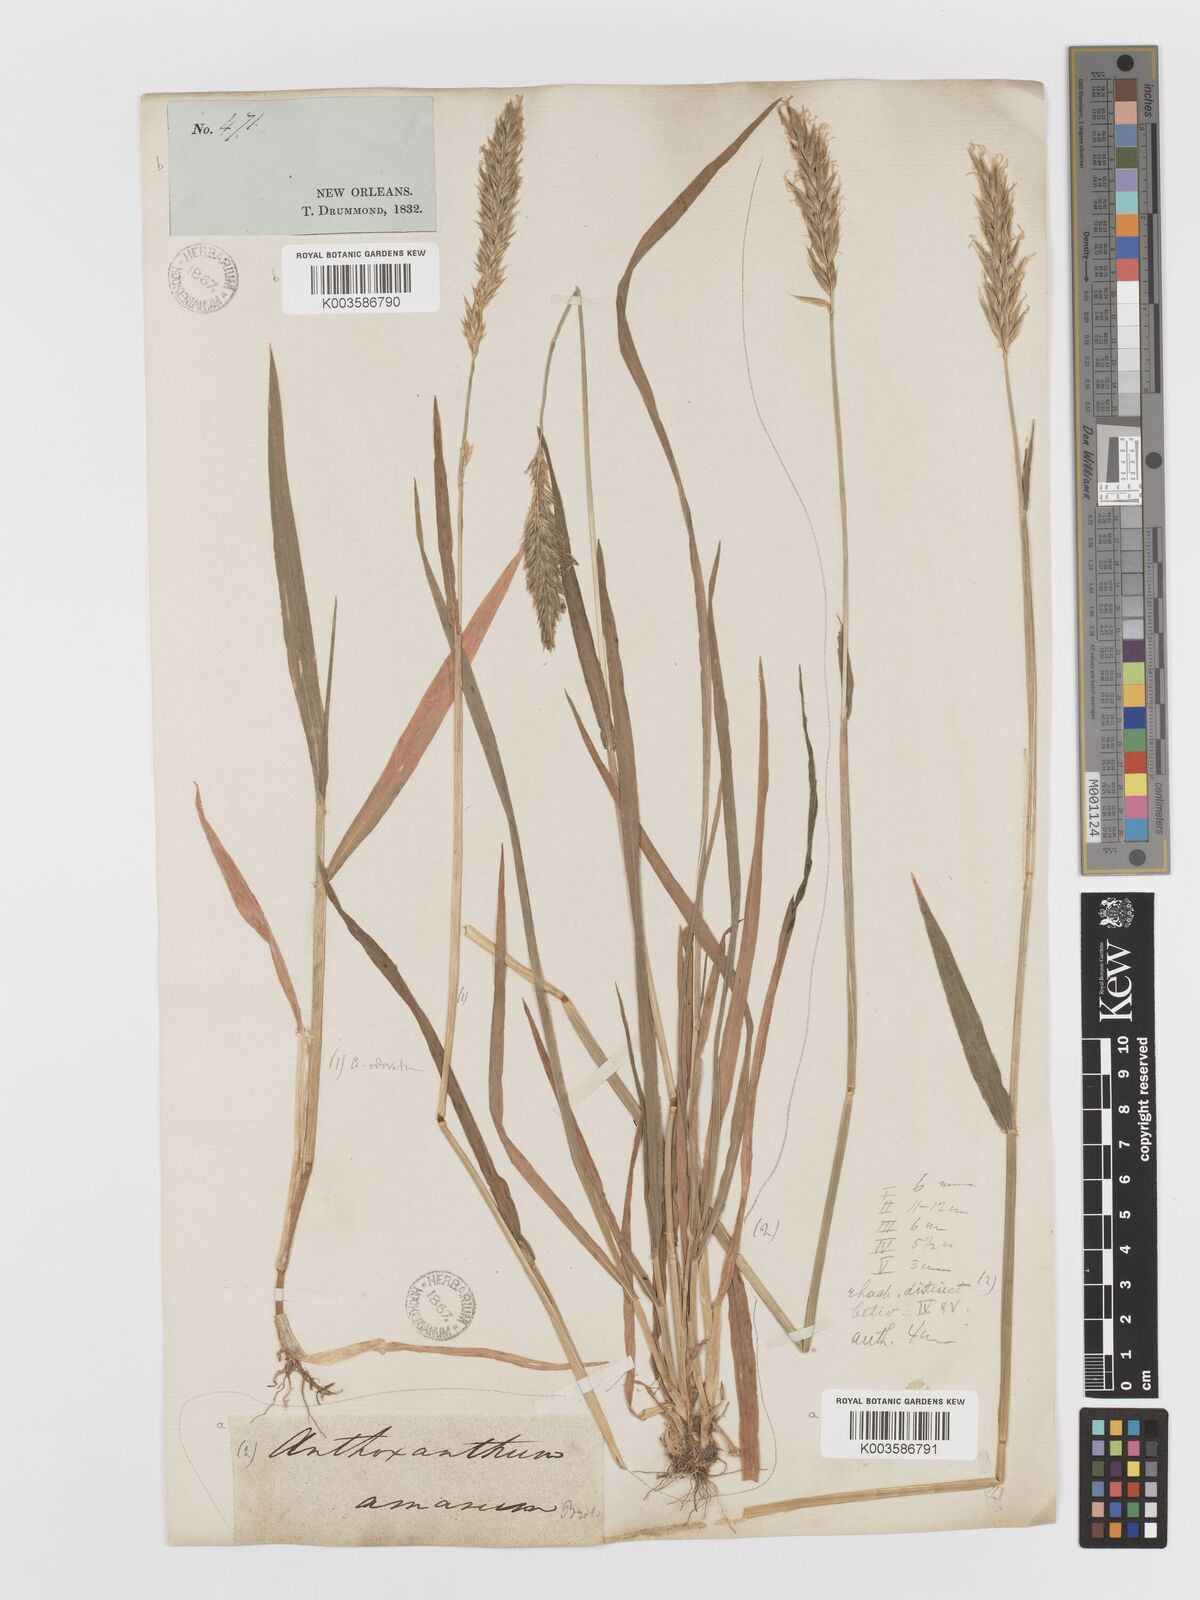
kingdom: Plantae
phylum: Tracheophyta
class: Liliopsida
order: Poales
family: Poaceae
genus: Anthoxanthum
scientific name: Anthoxanthum amarum
